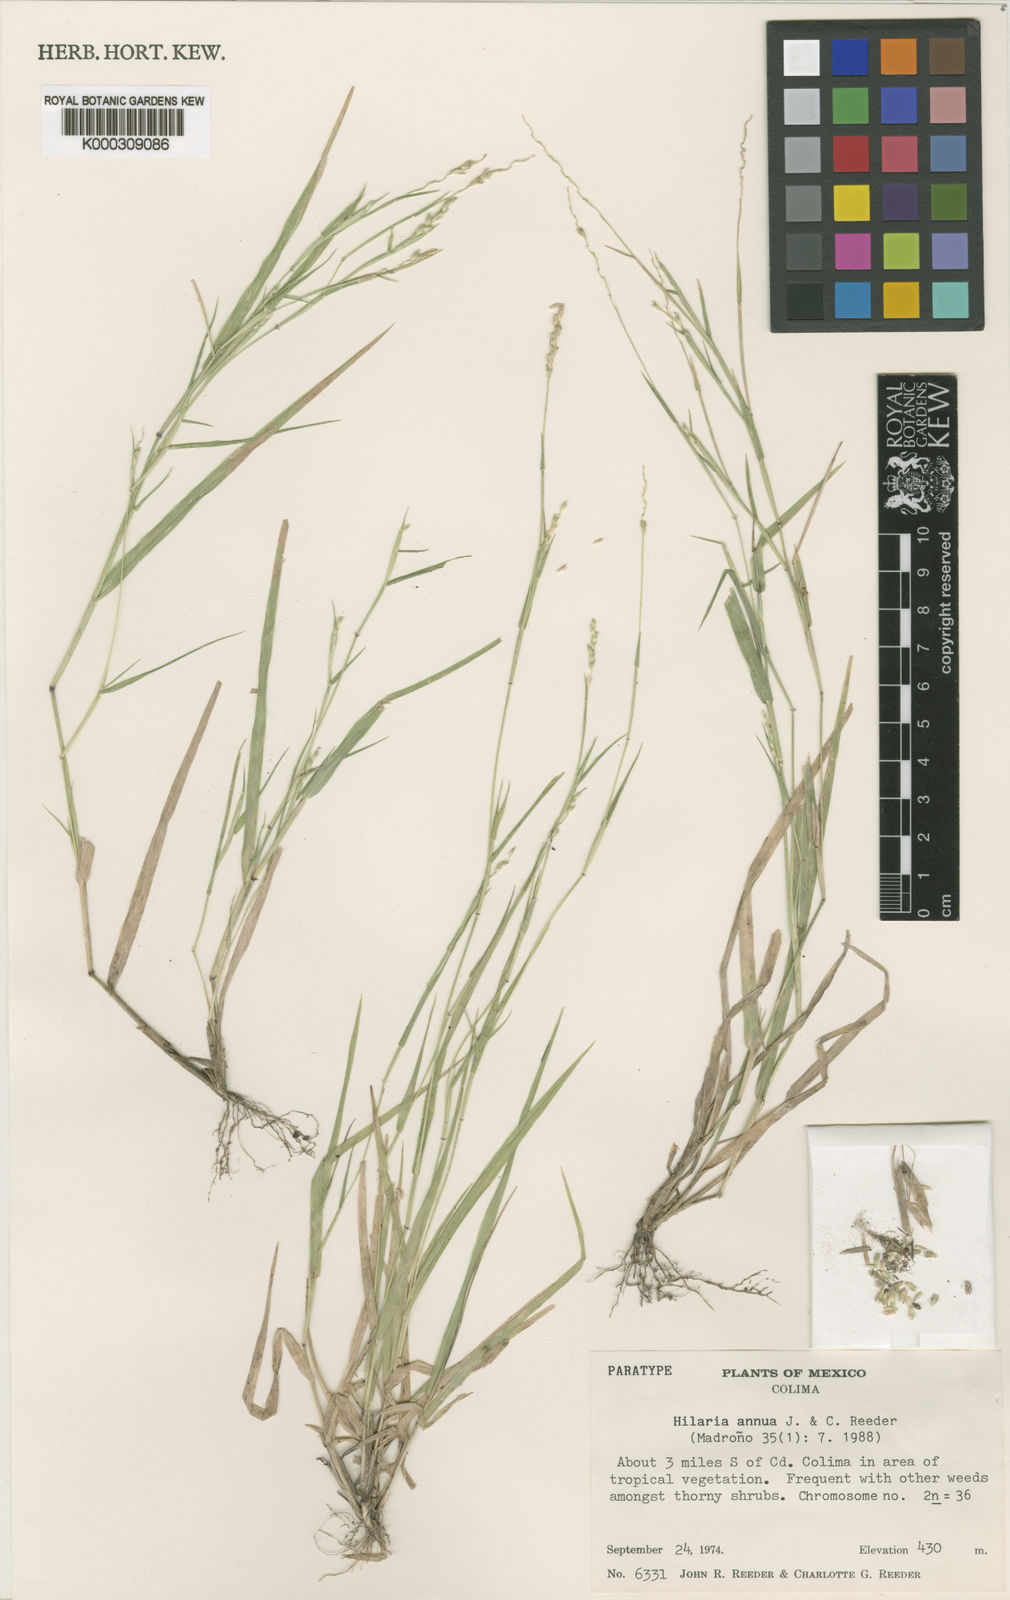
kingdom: Plantae
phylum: Tracheophyta
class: Liliopsida
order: Poales
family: Poaceae
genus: Hilaria
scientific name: Hilaria annua
